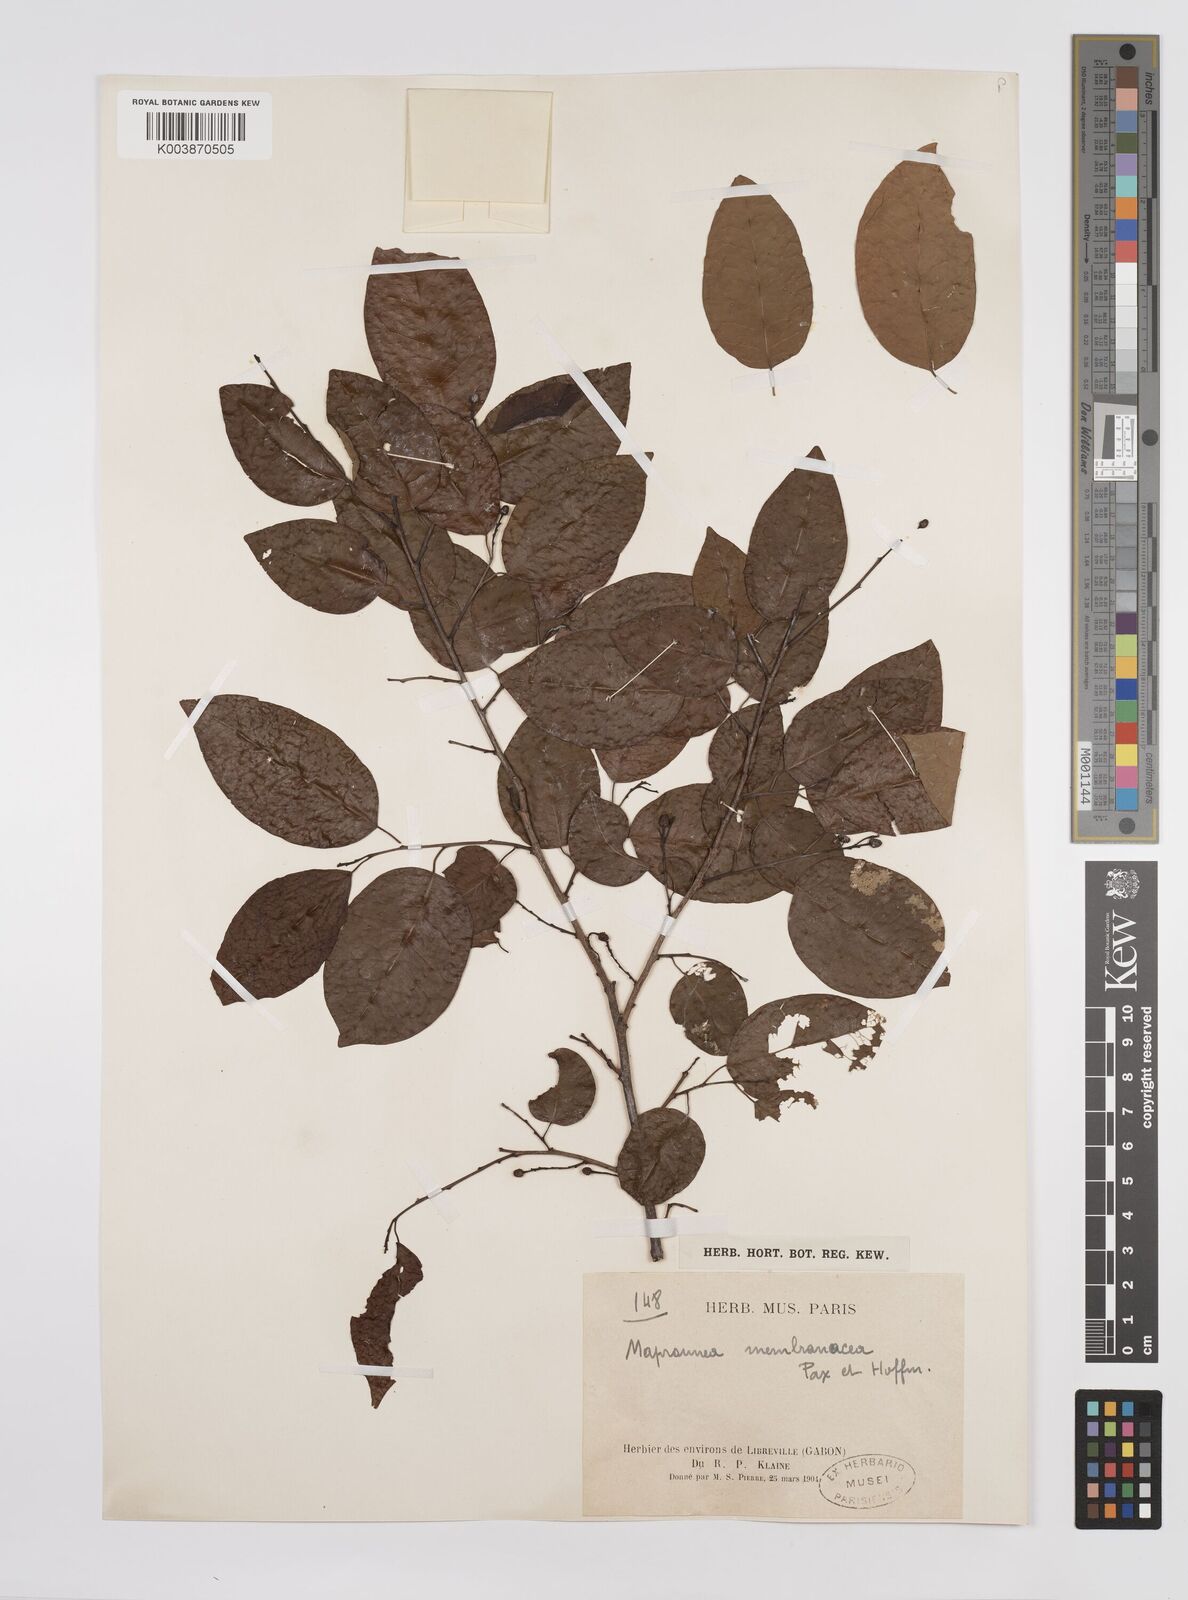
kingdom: Plantae
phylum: Tracheophyta
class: Magnoliopsida
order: Malpighiales
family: Euphorbiaceae
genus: Maprounea
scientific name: Maprounea membranacea
